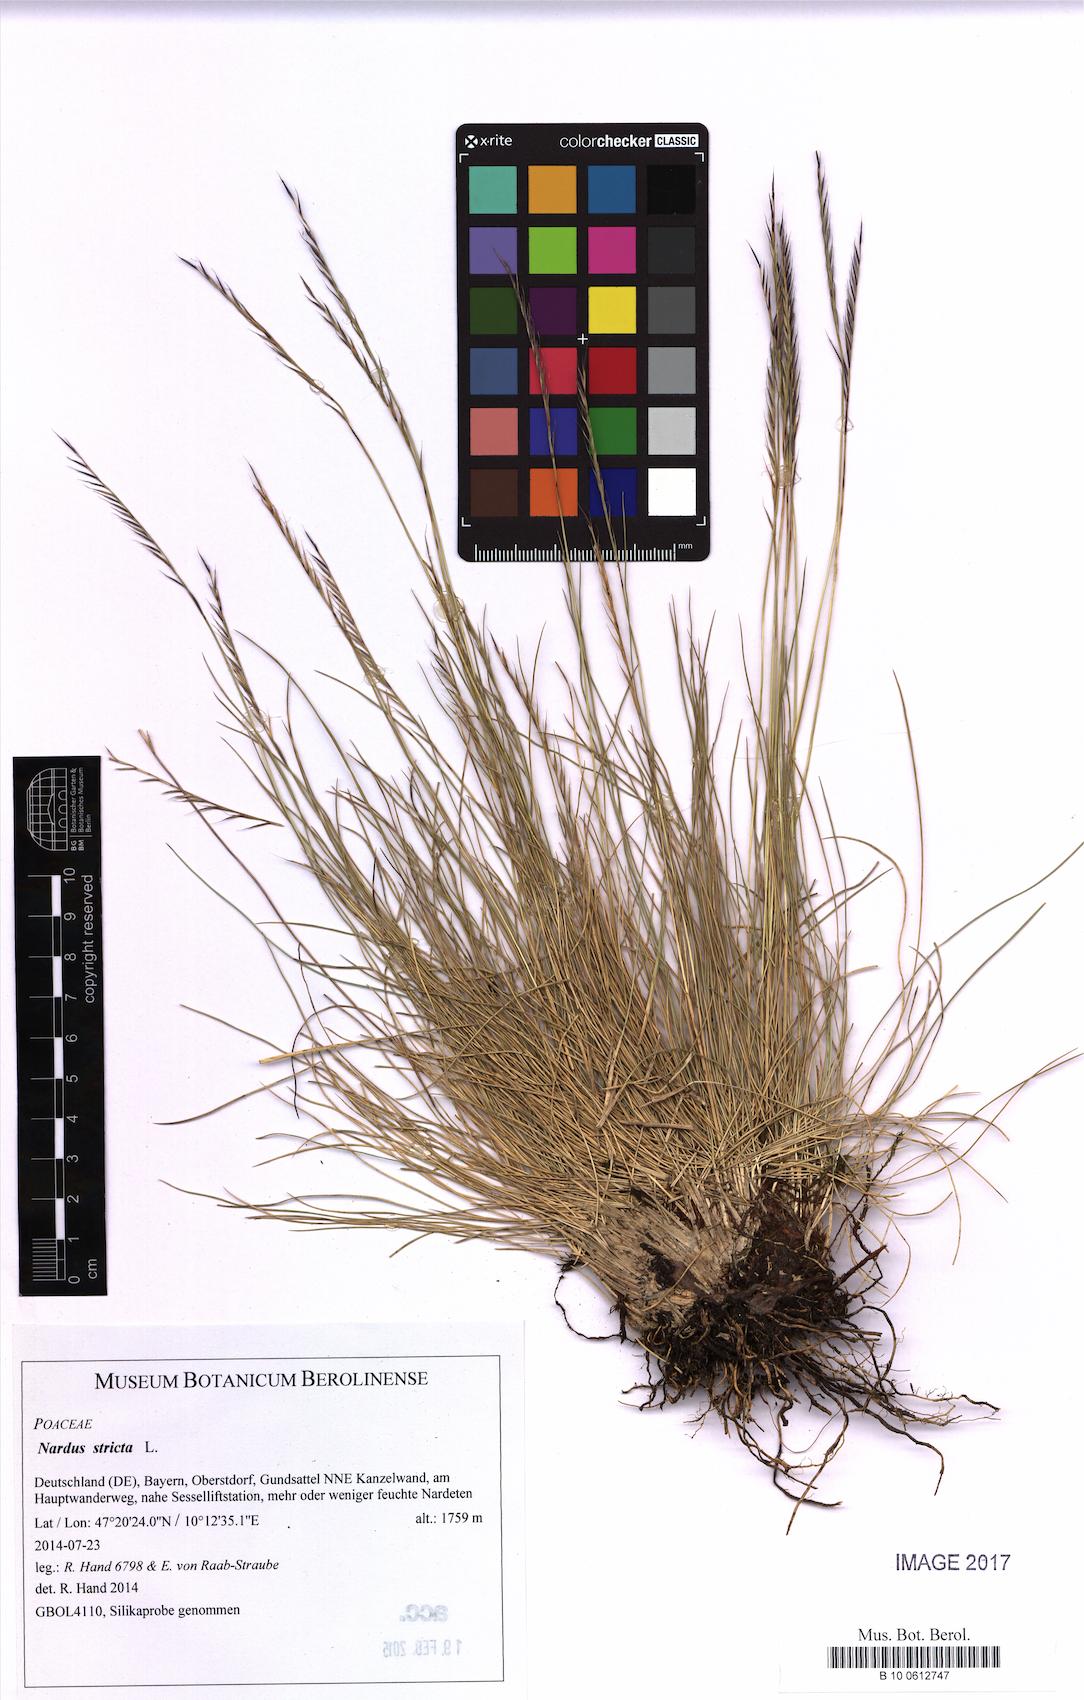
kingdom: Plantae
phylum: Tracheophyta
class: Liliopsida
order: Poales
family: Poaceae
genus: Nardus
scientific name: Nardus stricta
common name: Mat-grass
